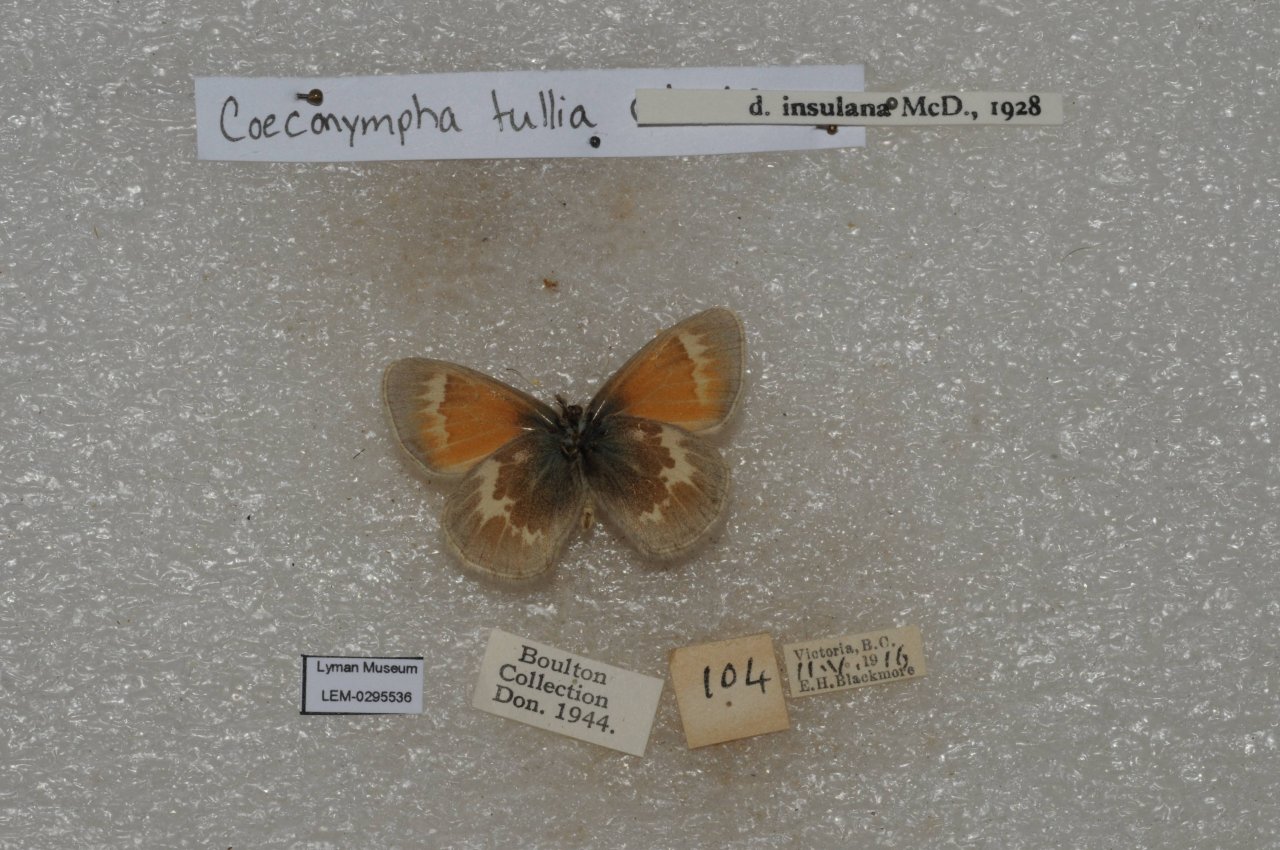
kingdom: Animalia
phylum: Arthropoda
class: Insecta
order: Lepidoptera
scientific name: Lepidoptera
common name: Butterflies
